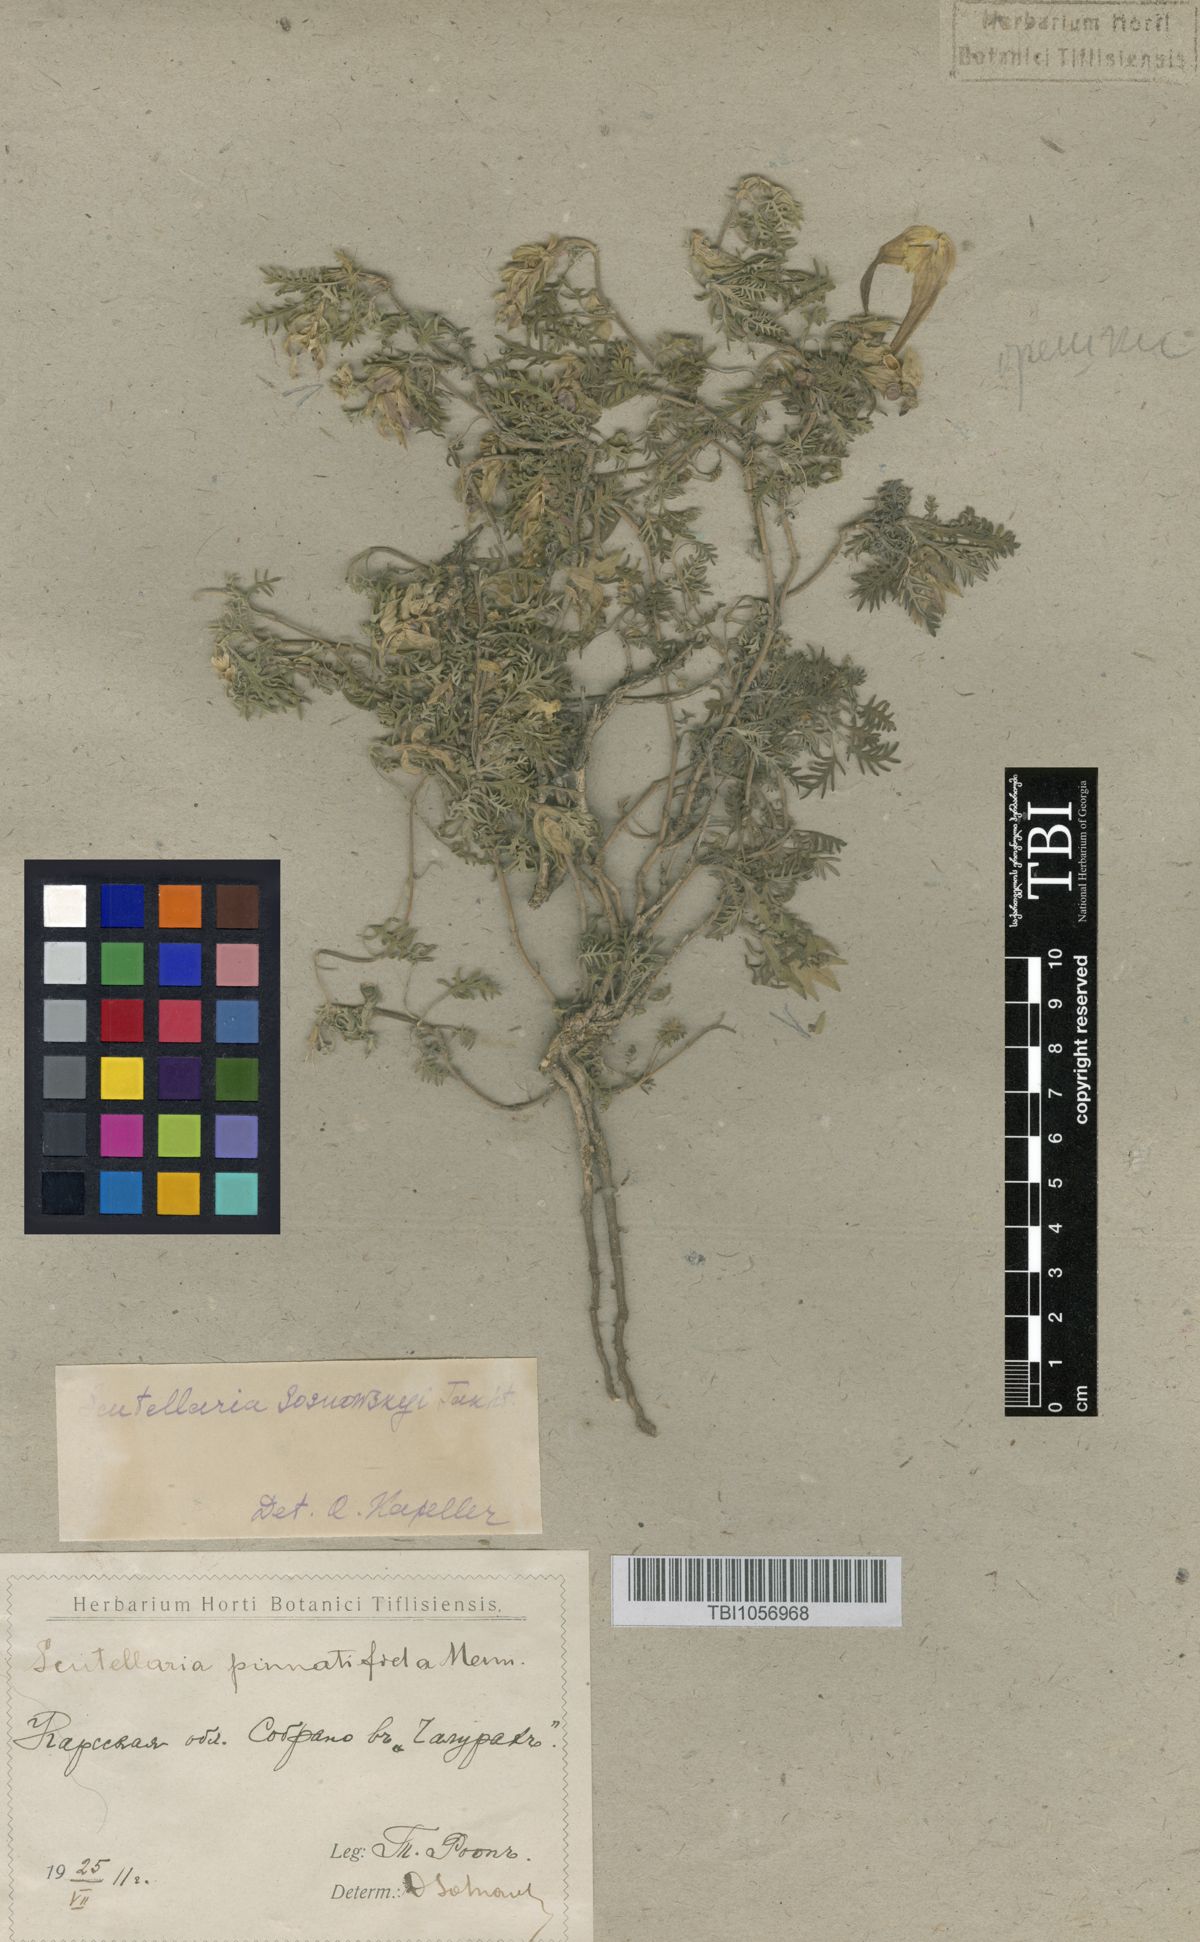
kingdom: Plantae
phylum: Tracheophyta
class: Magnoliopsida
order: Lamiales
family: Lamiaceae
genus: Scutellaria
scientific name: Scutellaria sosnowskyi
